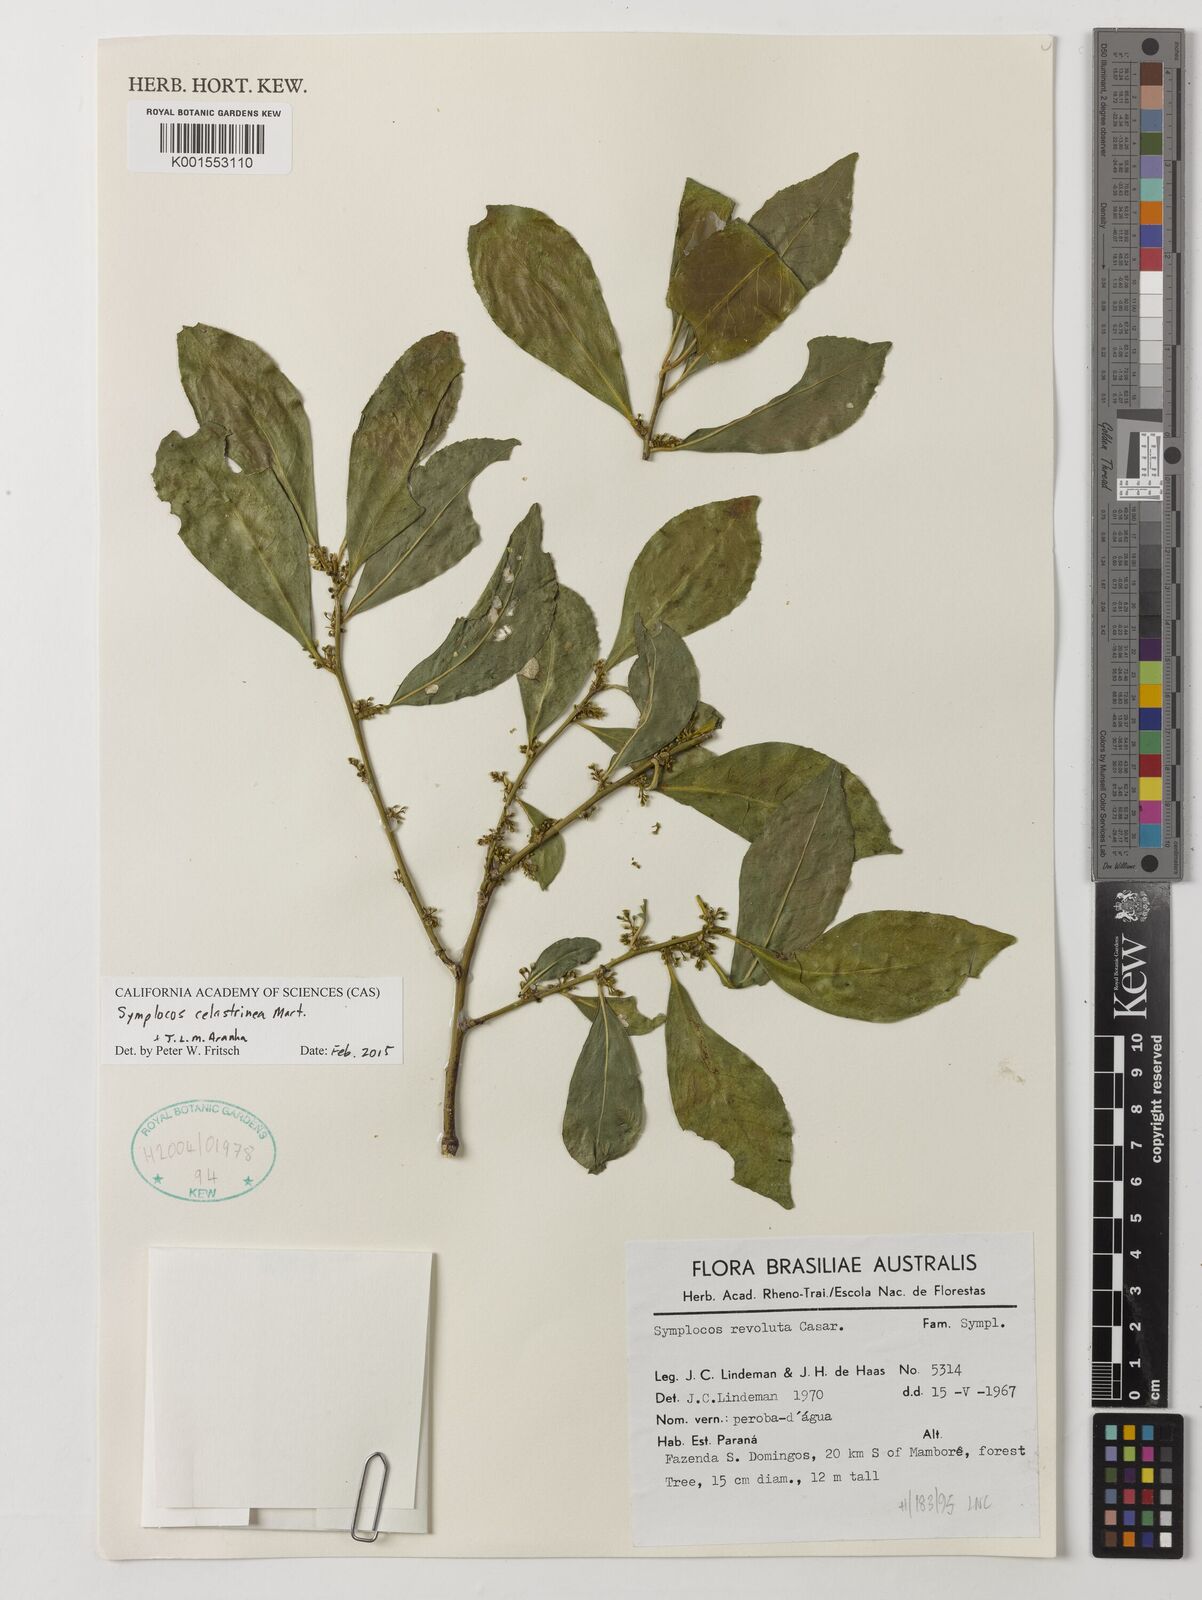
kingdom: Plantae
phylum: Tracheophyta
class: Magnoliopsida
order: Ericales
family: Symplocaceae
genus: Symplocos
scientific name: Symplocos celastrinea
